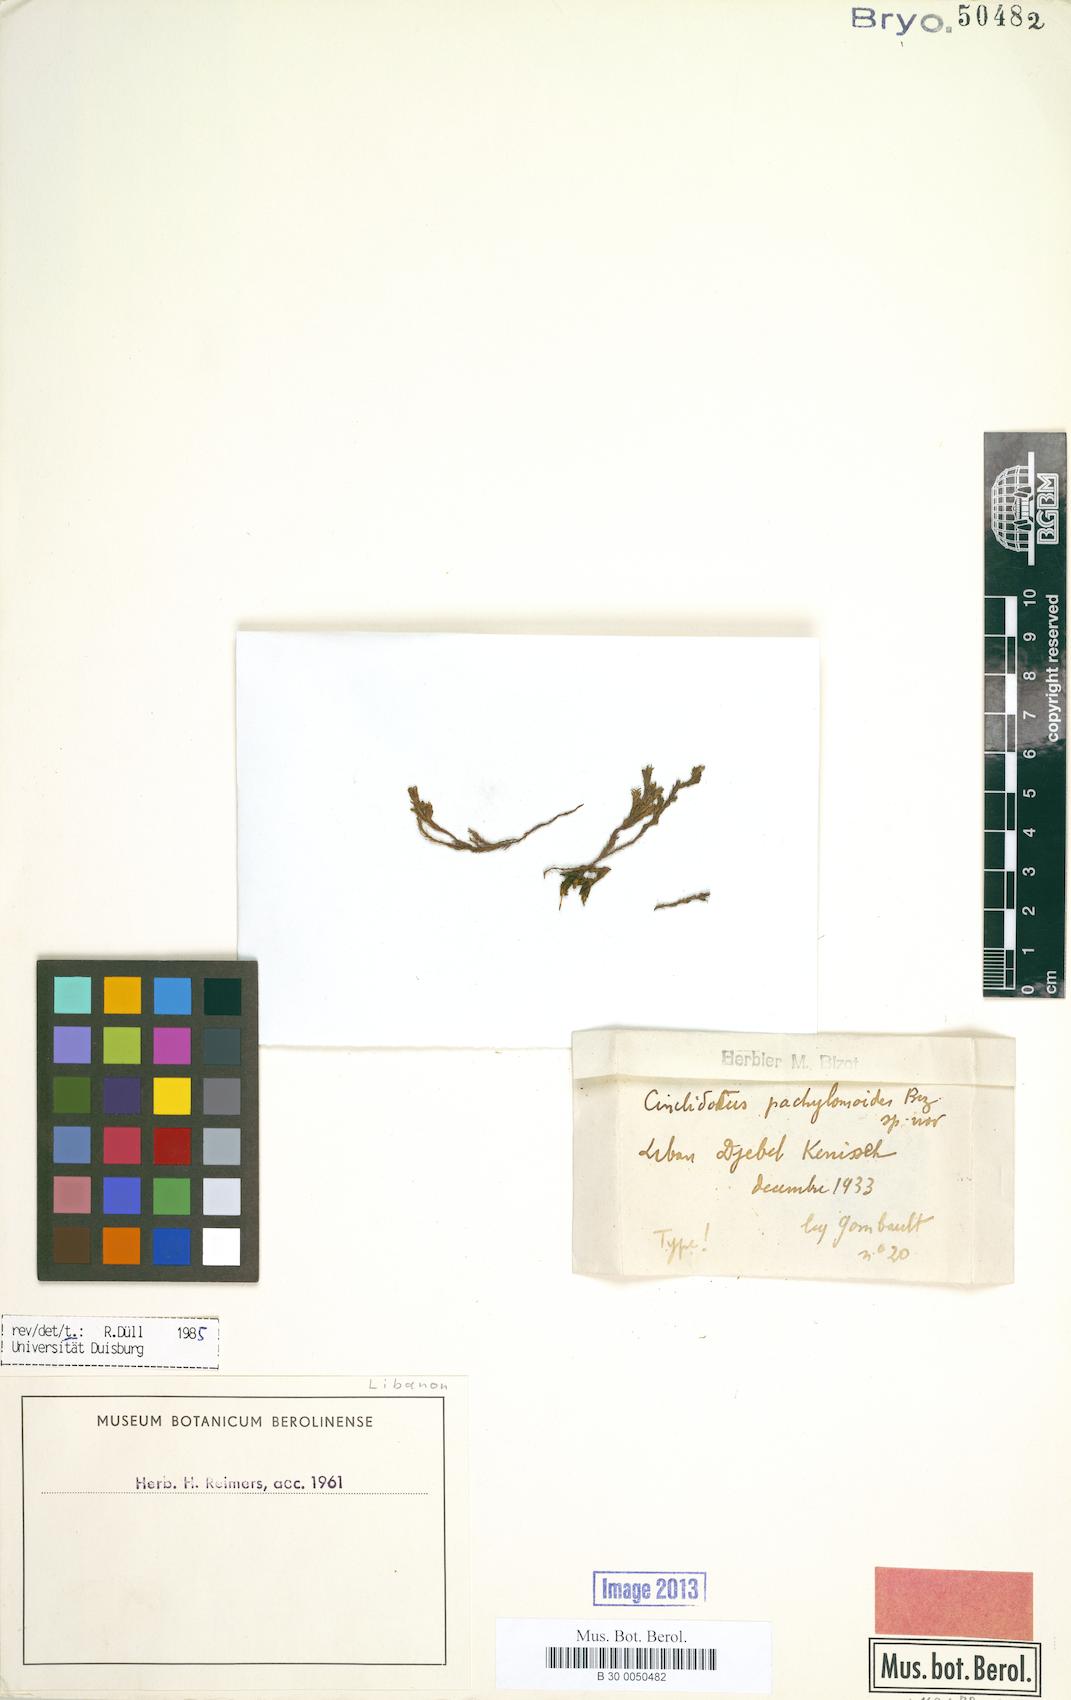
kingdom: Plantae
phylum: Bryophyta
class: Bryopsida
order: Pottiales
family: Pottiaceae
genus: Cinclidotus
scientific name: Cinclidotus pachylomoides
